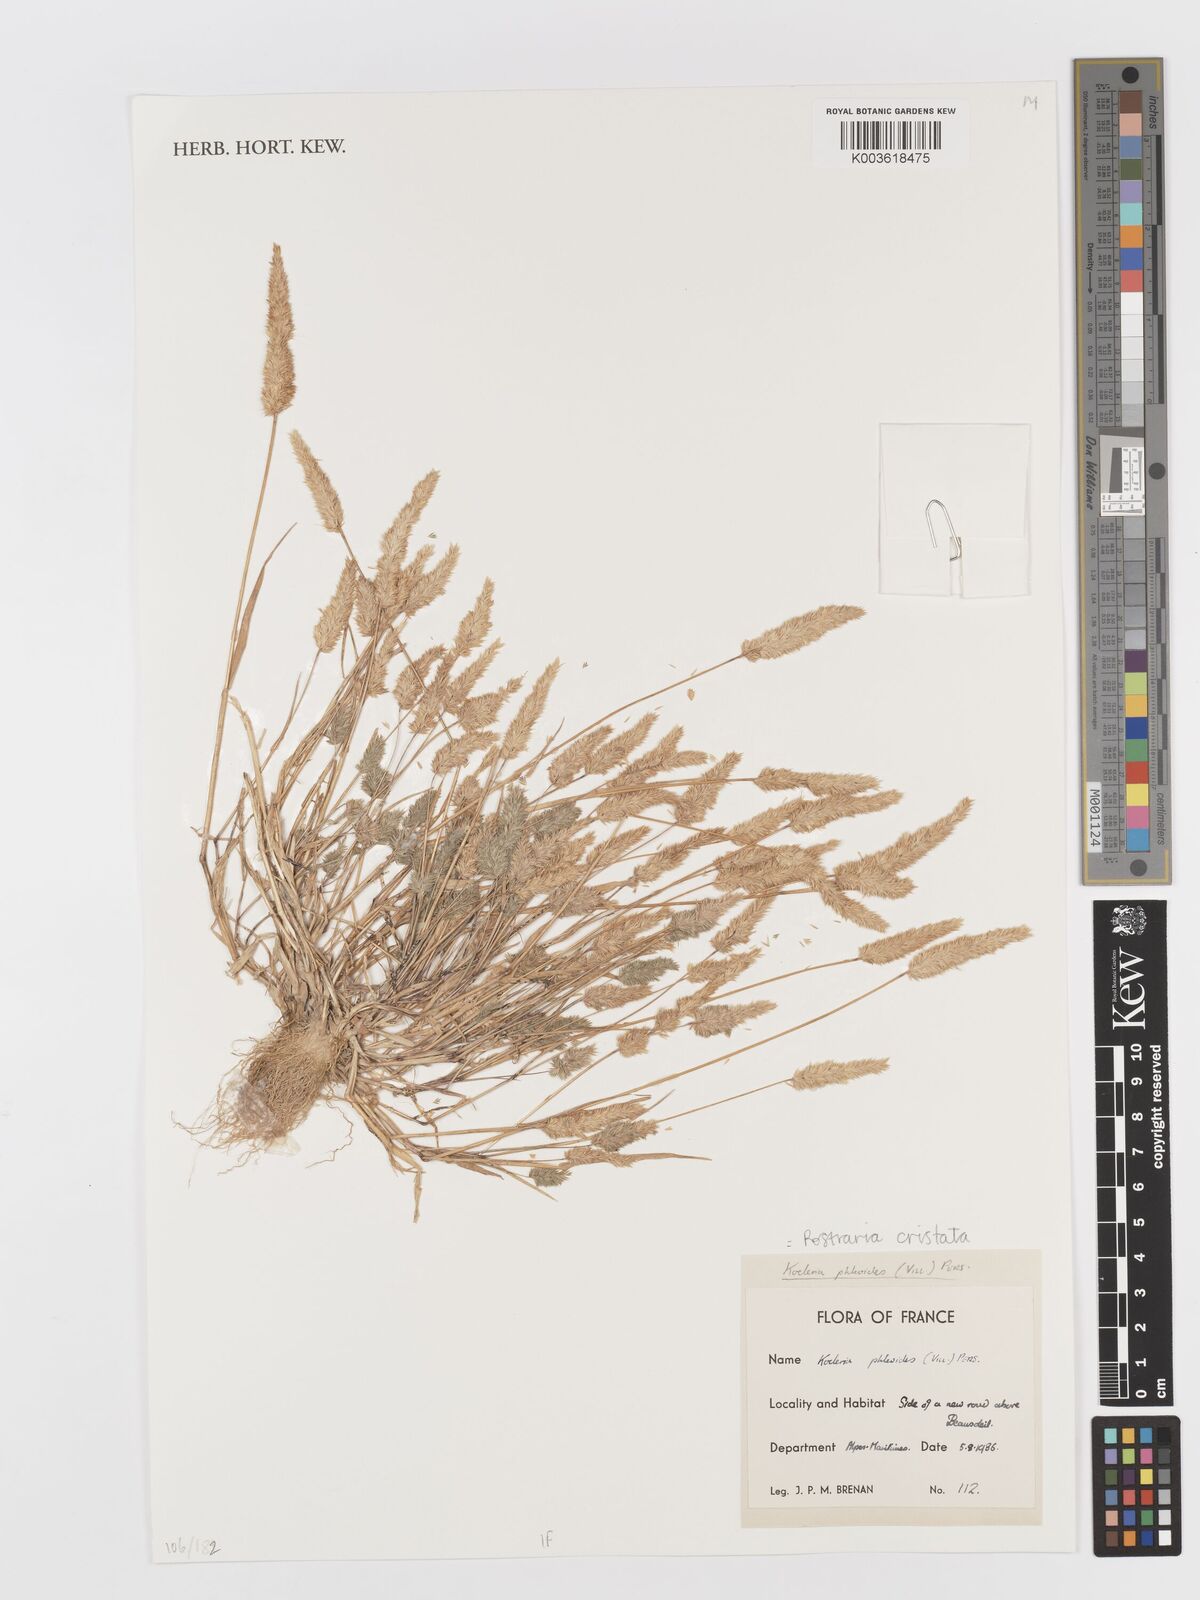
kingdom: Plantae
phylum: Tracheophyta
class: Liliopsida
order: Poales
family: Poaceae
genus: Rostraria
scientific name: Rostraria cristata
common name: Mediterranean hair-grass
